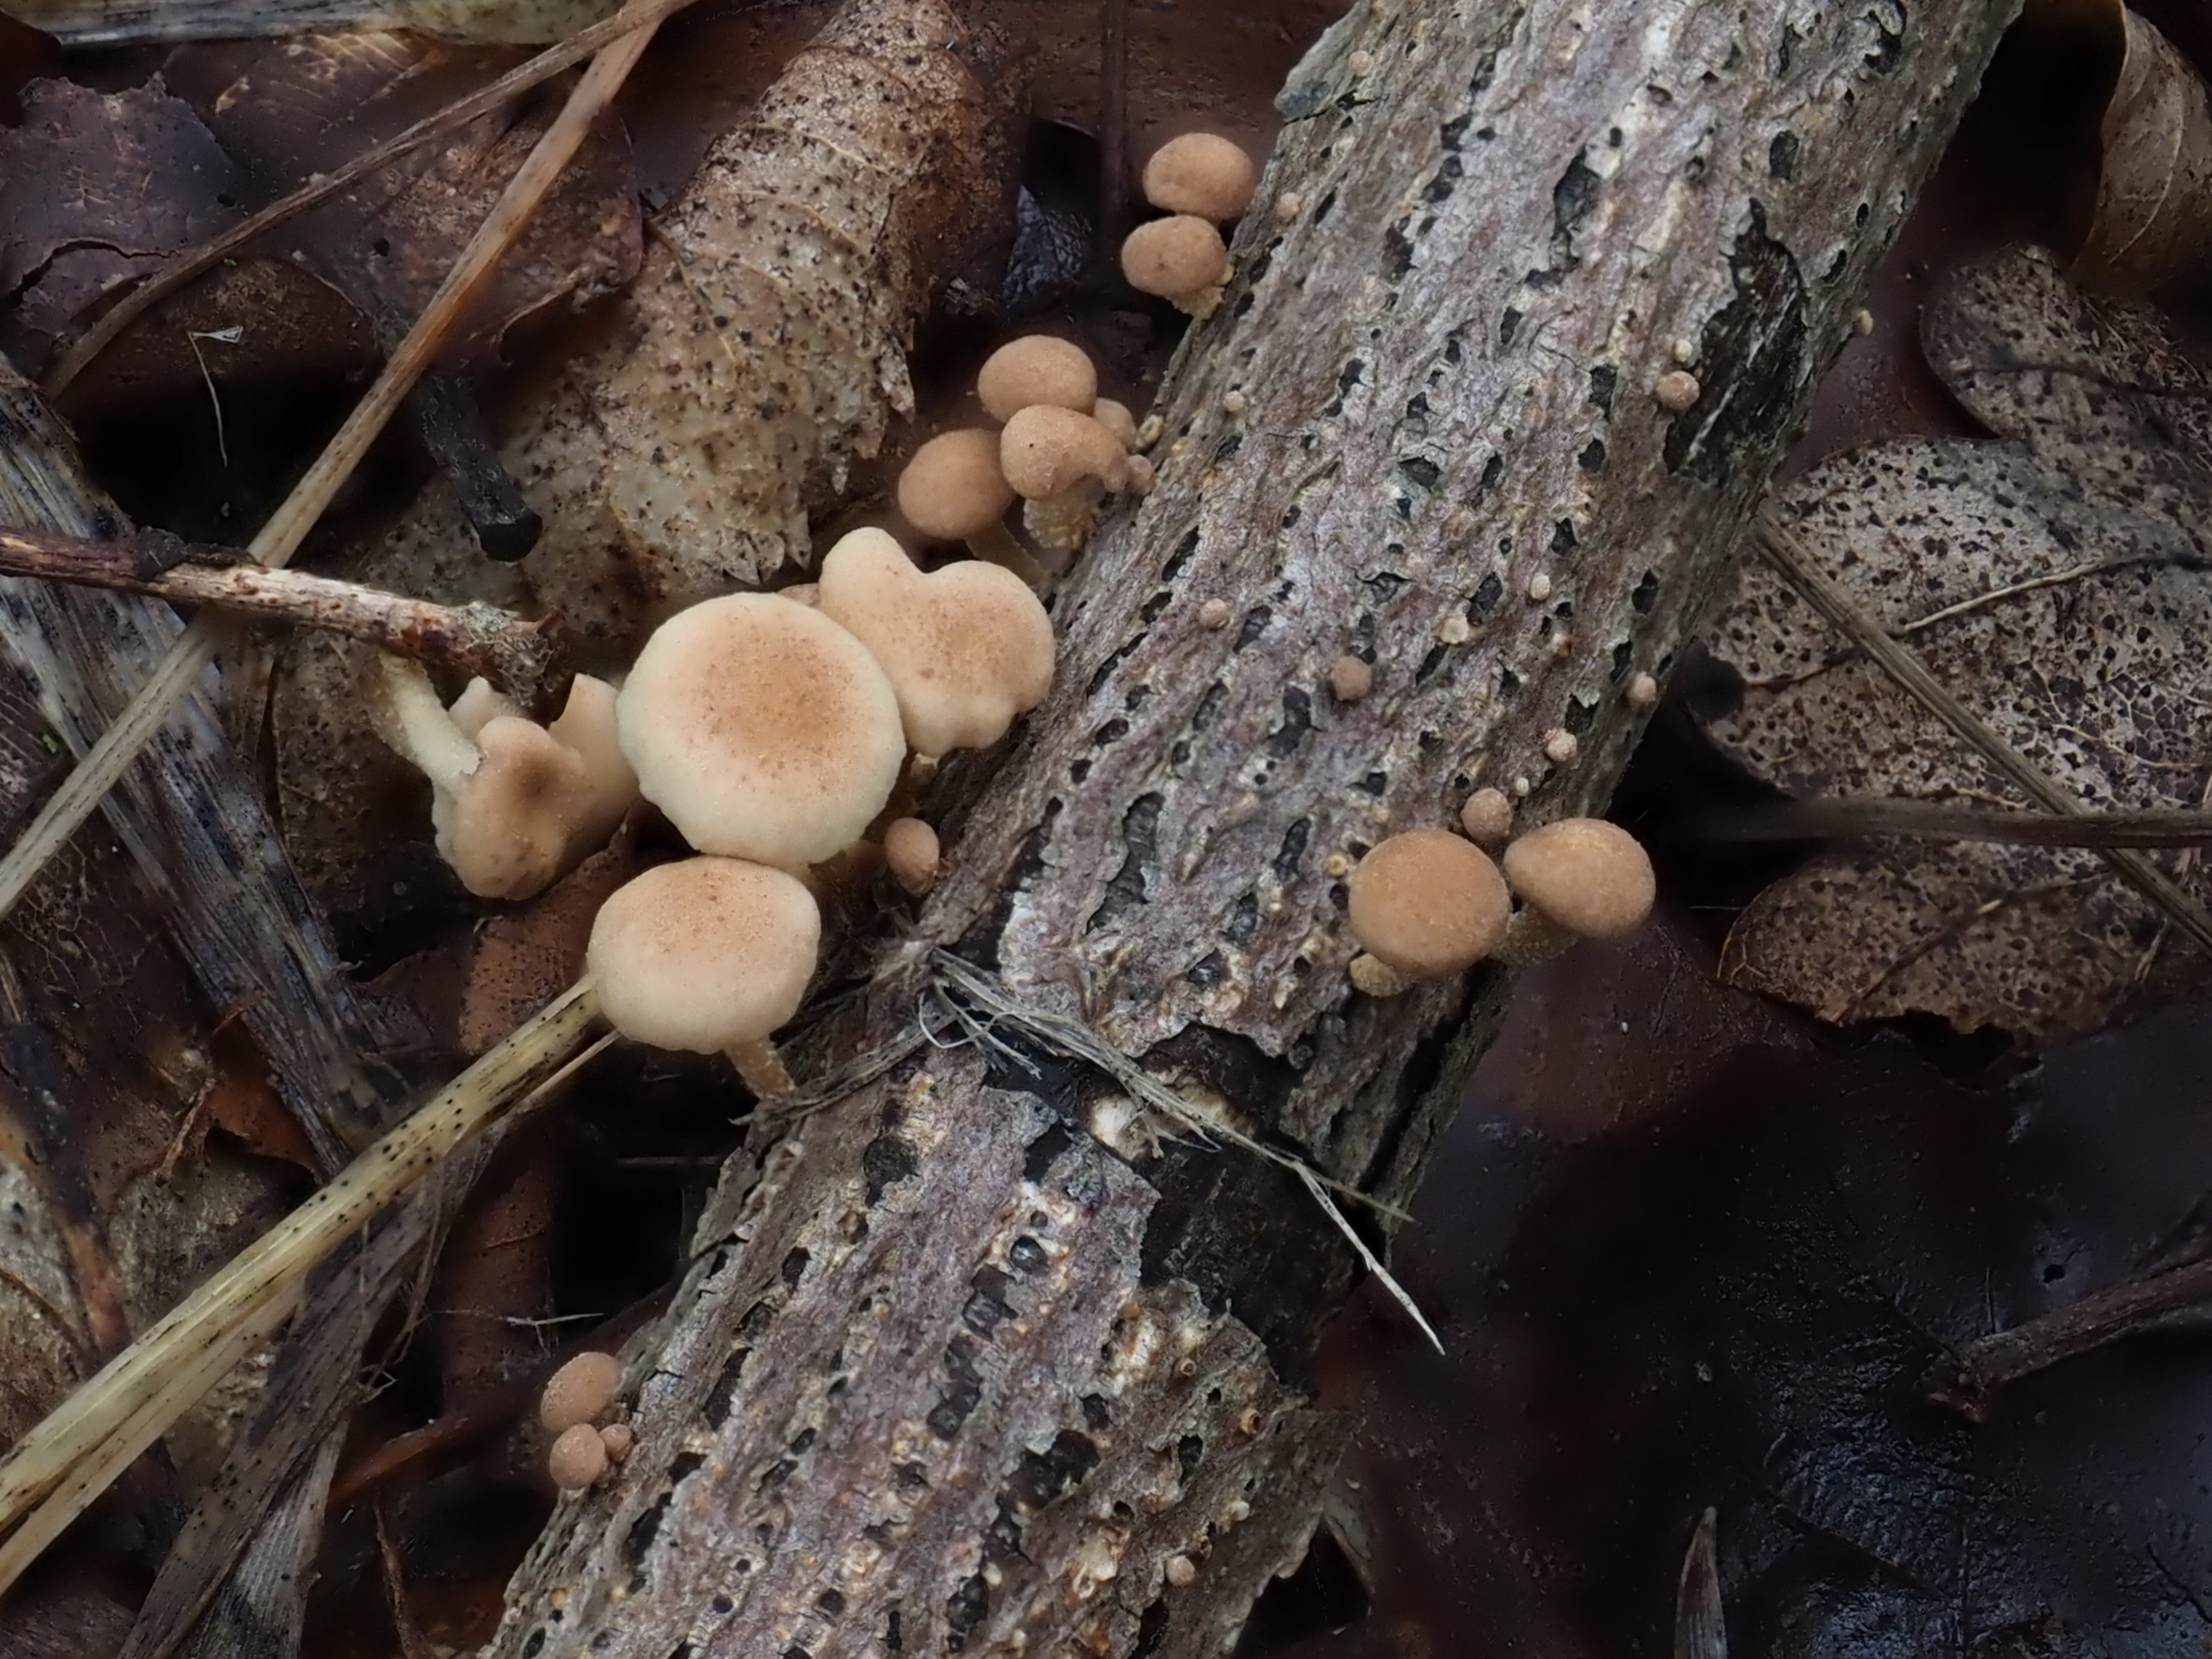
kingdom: Fungi
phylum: Basidiomycota
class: Agaricomycetes
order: Agaricales
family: Omphalotaceae
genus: Marasmiellus
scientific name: Marasmiellus
